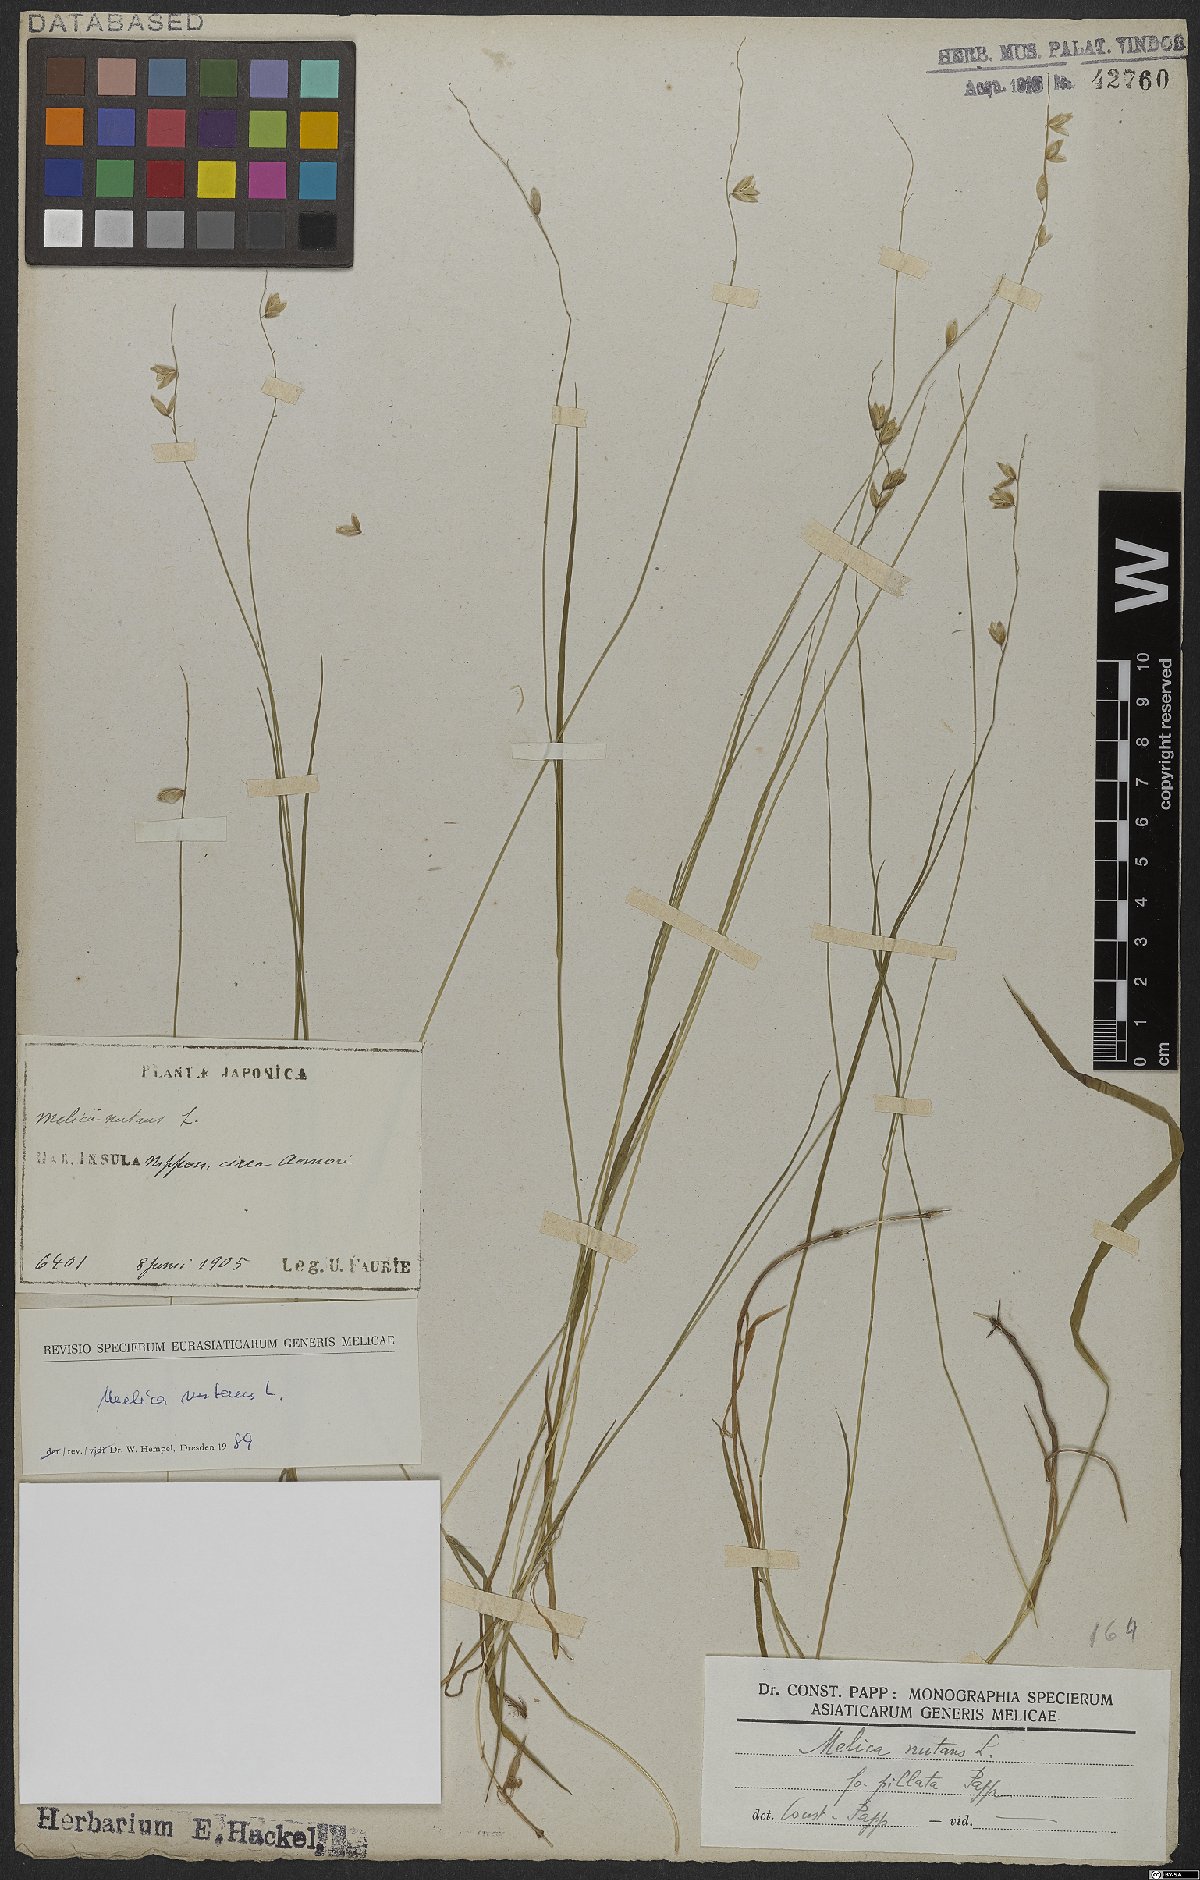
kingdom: Plantae
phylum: Tracheophyta
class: Liliopsida
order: Poales
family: Poaceae
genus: Melica
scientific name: Melica nutans
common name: Mountain melick
